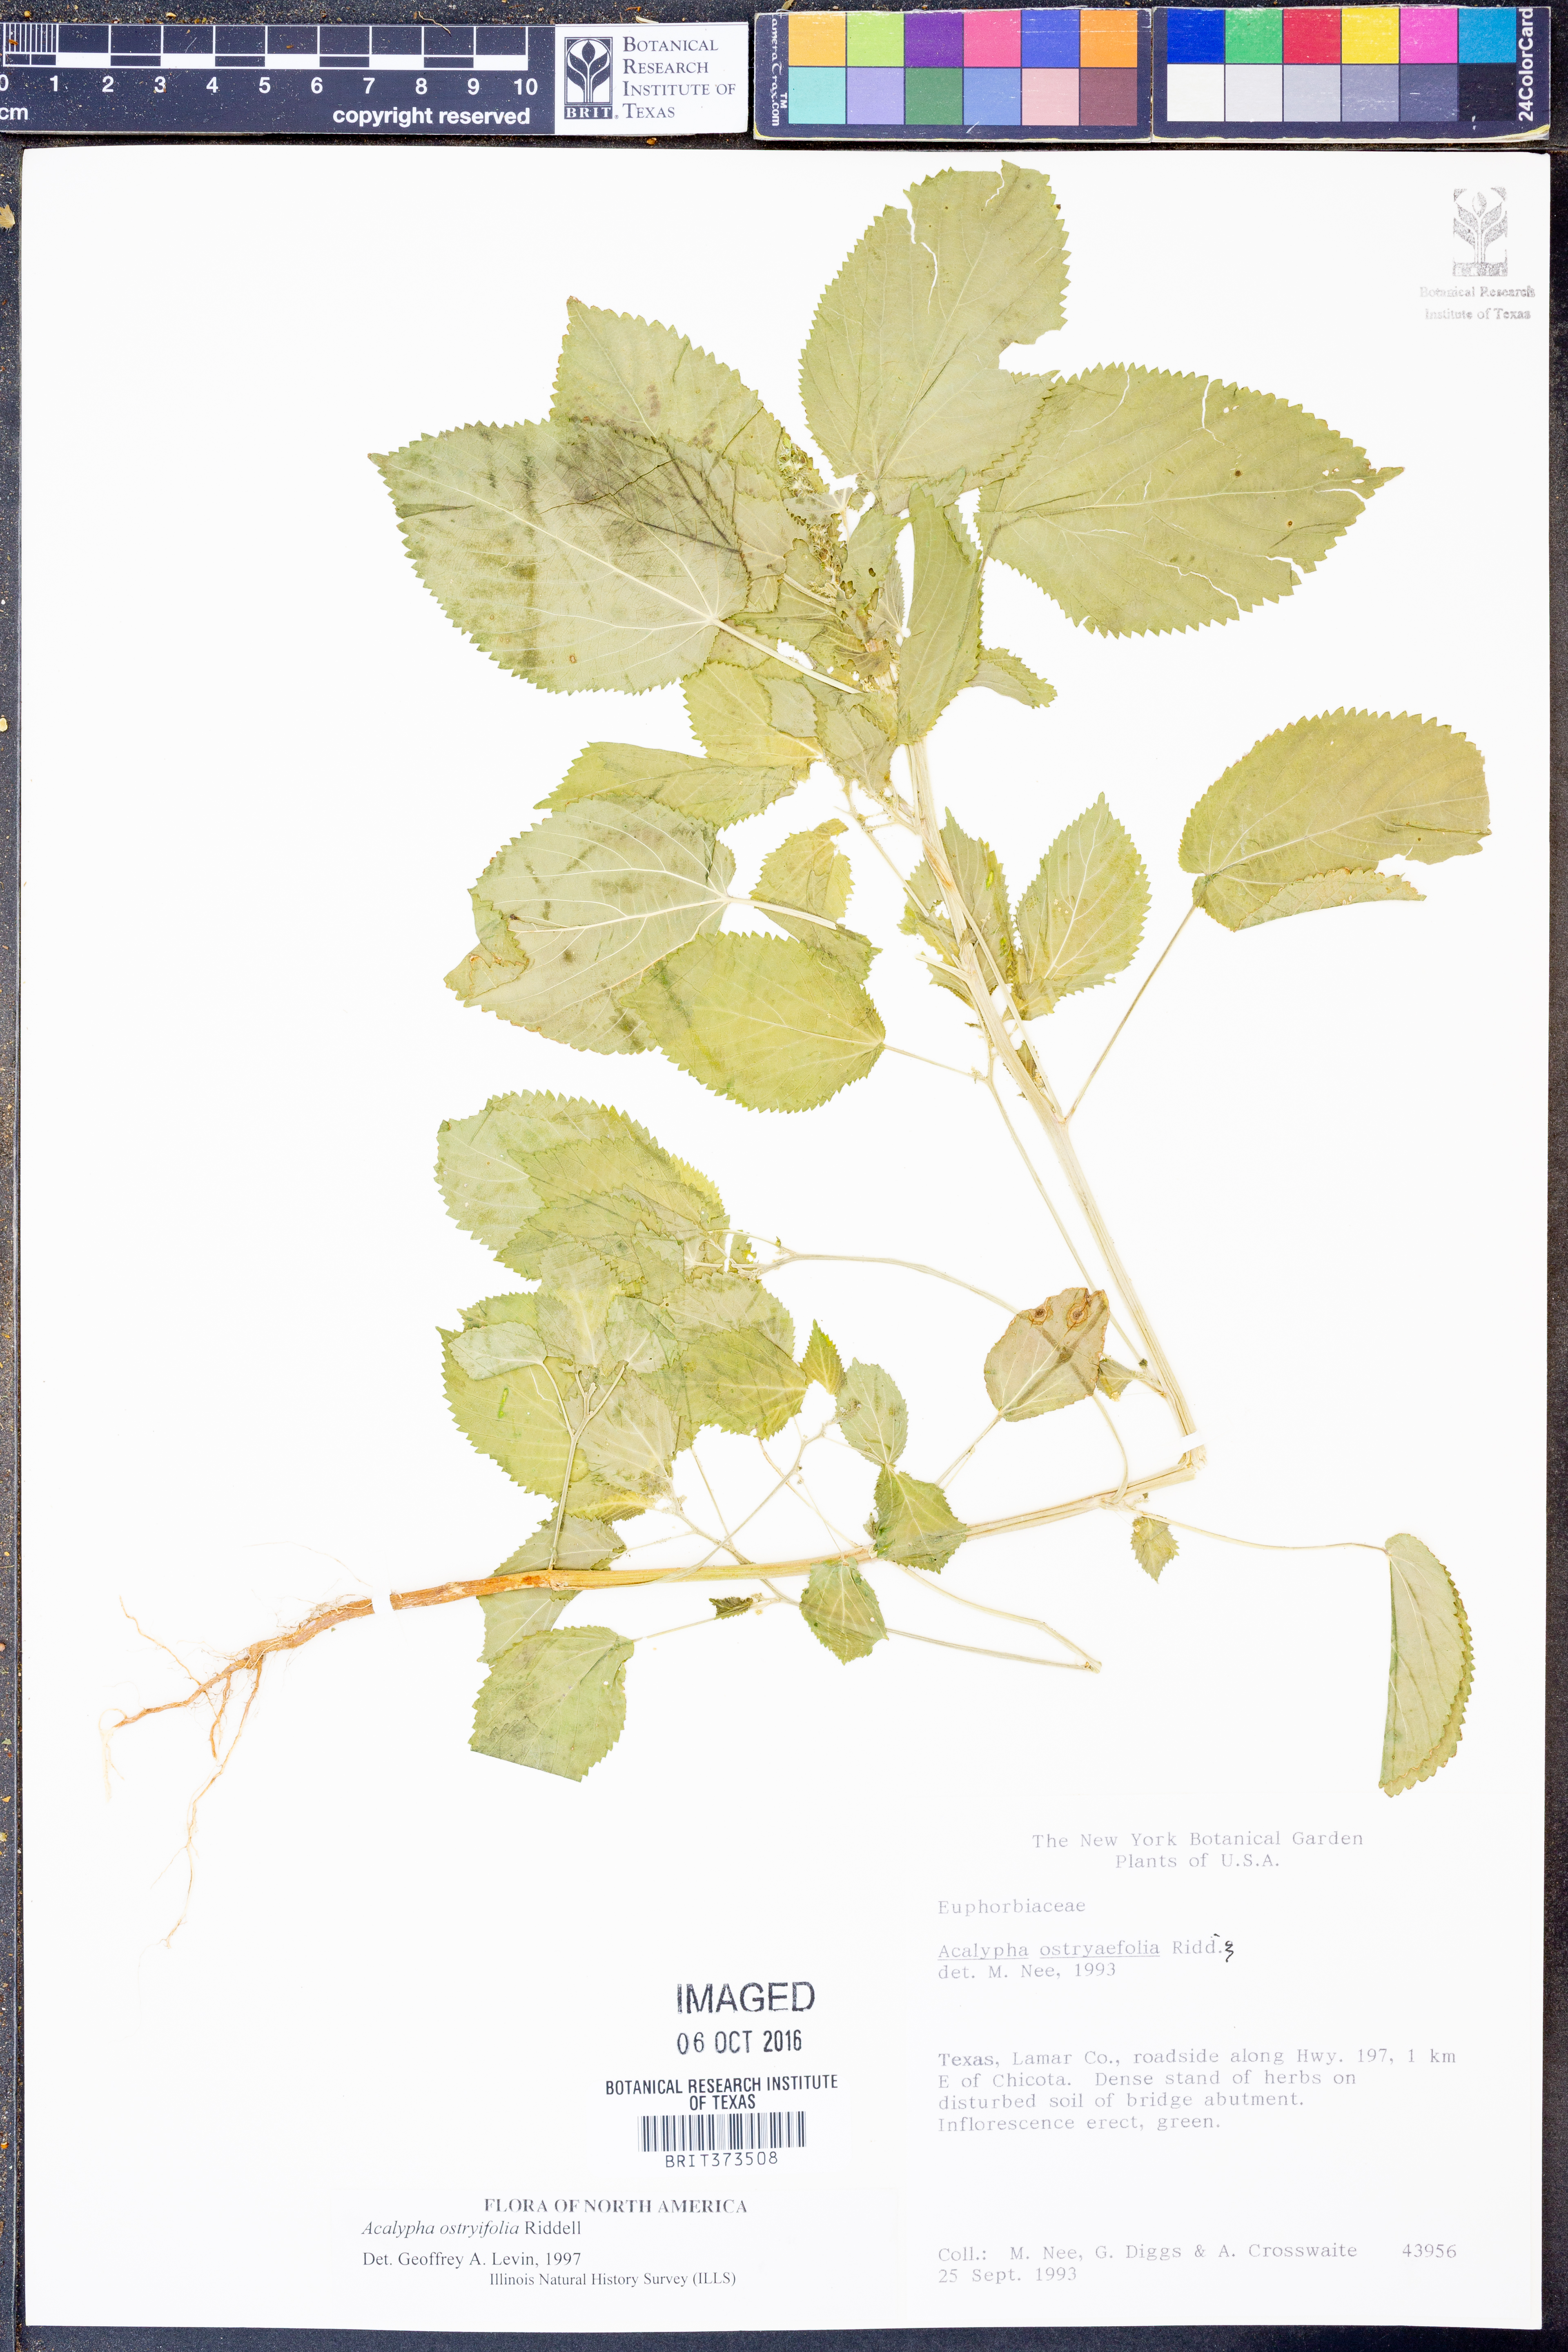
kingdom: Plantae
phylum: Tracheophyta
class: Magnoliopsida
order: Malpighiales
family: Euphorbiaceae
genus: Acalypha
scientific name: Acalypha persimilis
